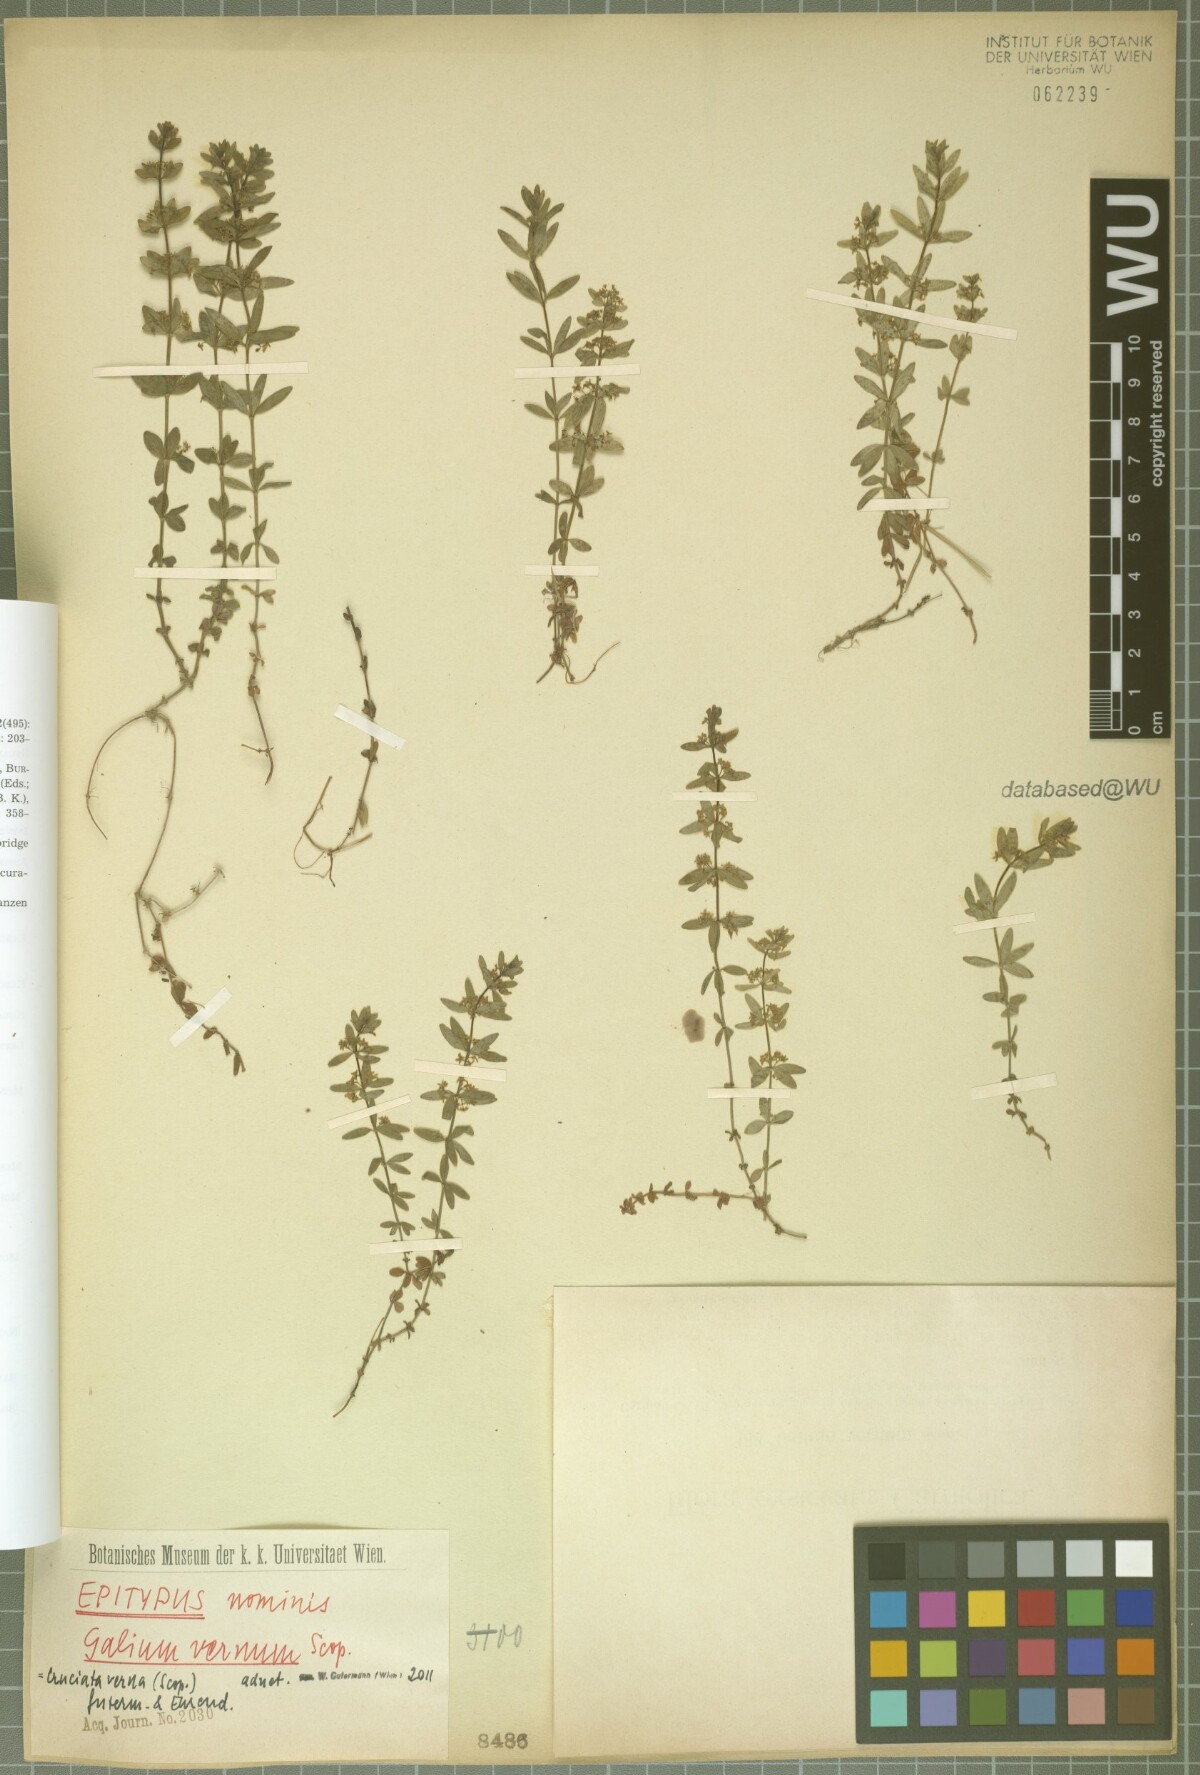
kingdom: Plantae
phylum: Tracheophyta
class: Magnoliopsida
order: Gentianales
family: Rubiaceae
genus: Cruciata
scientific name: Cruciata glabra
